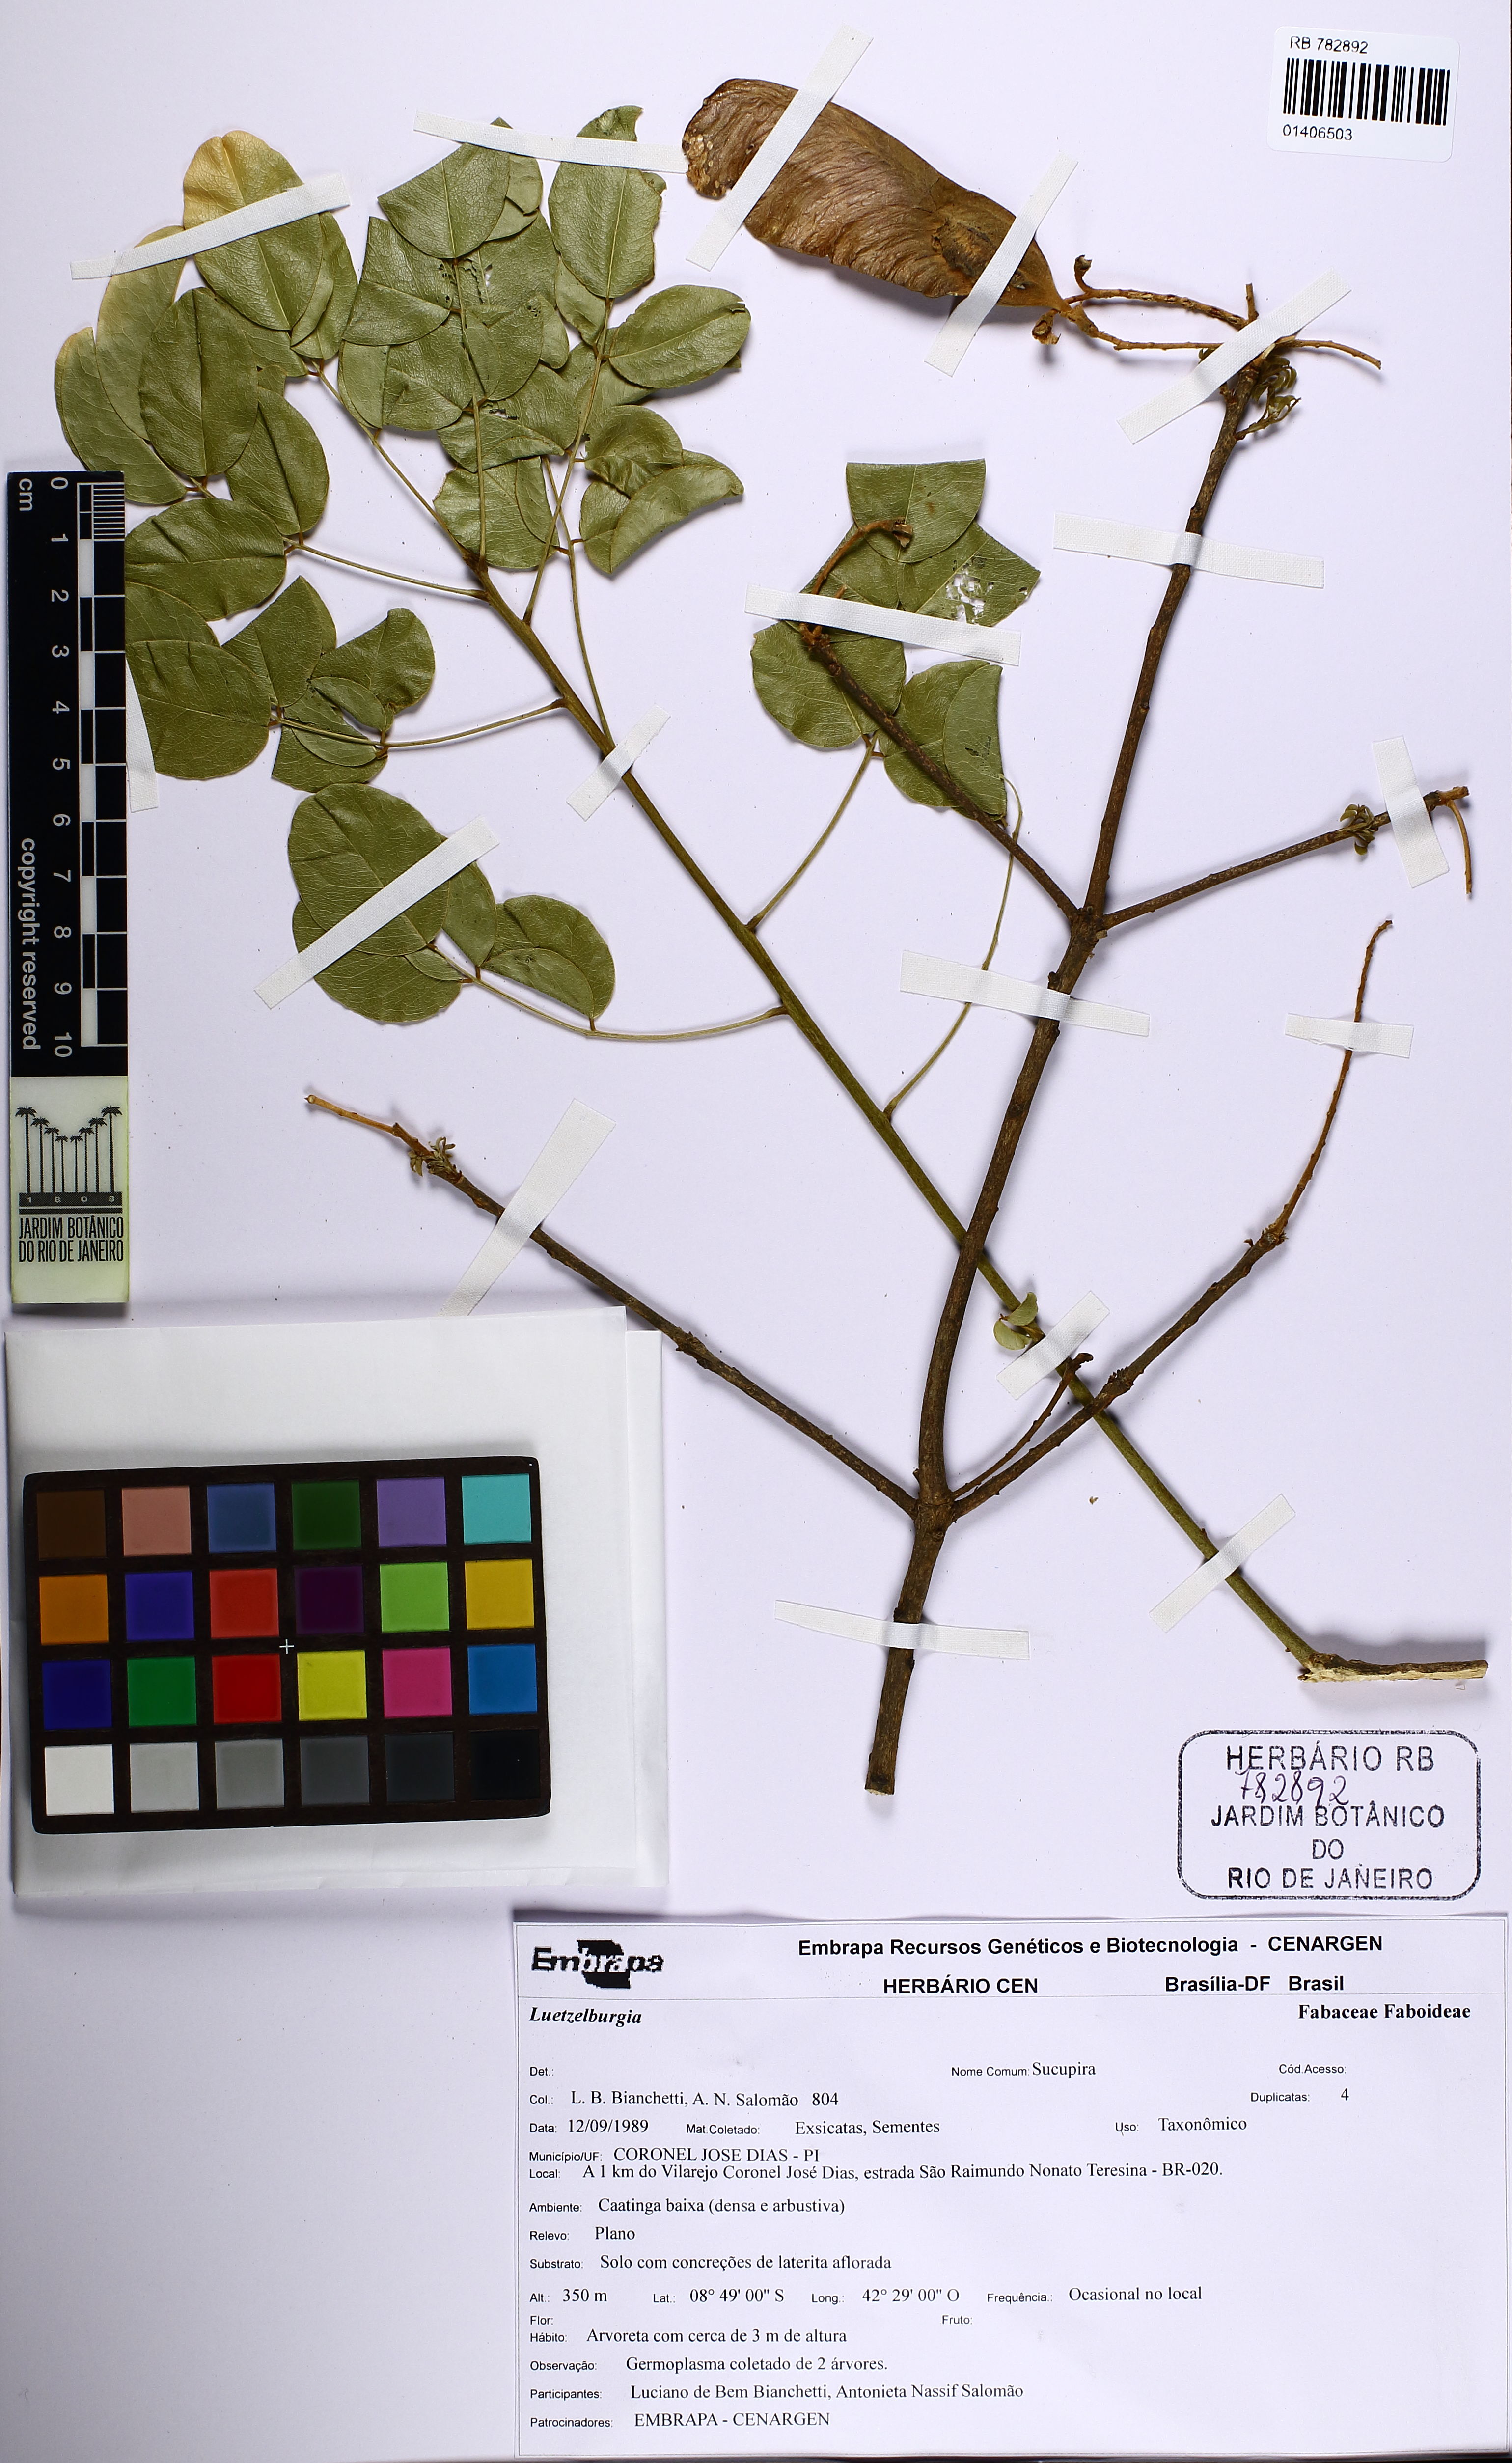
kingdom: Plantae
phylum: Tracheophyta
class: Magnoliopsida
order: Fabales
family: Fabaceae
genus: Luetzelburgia
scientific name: Luetzelburgia
